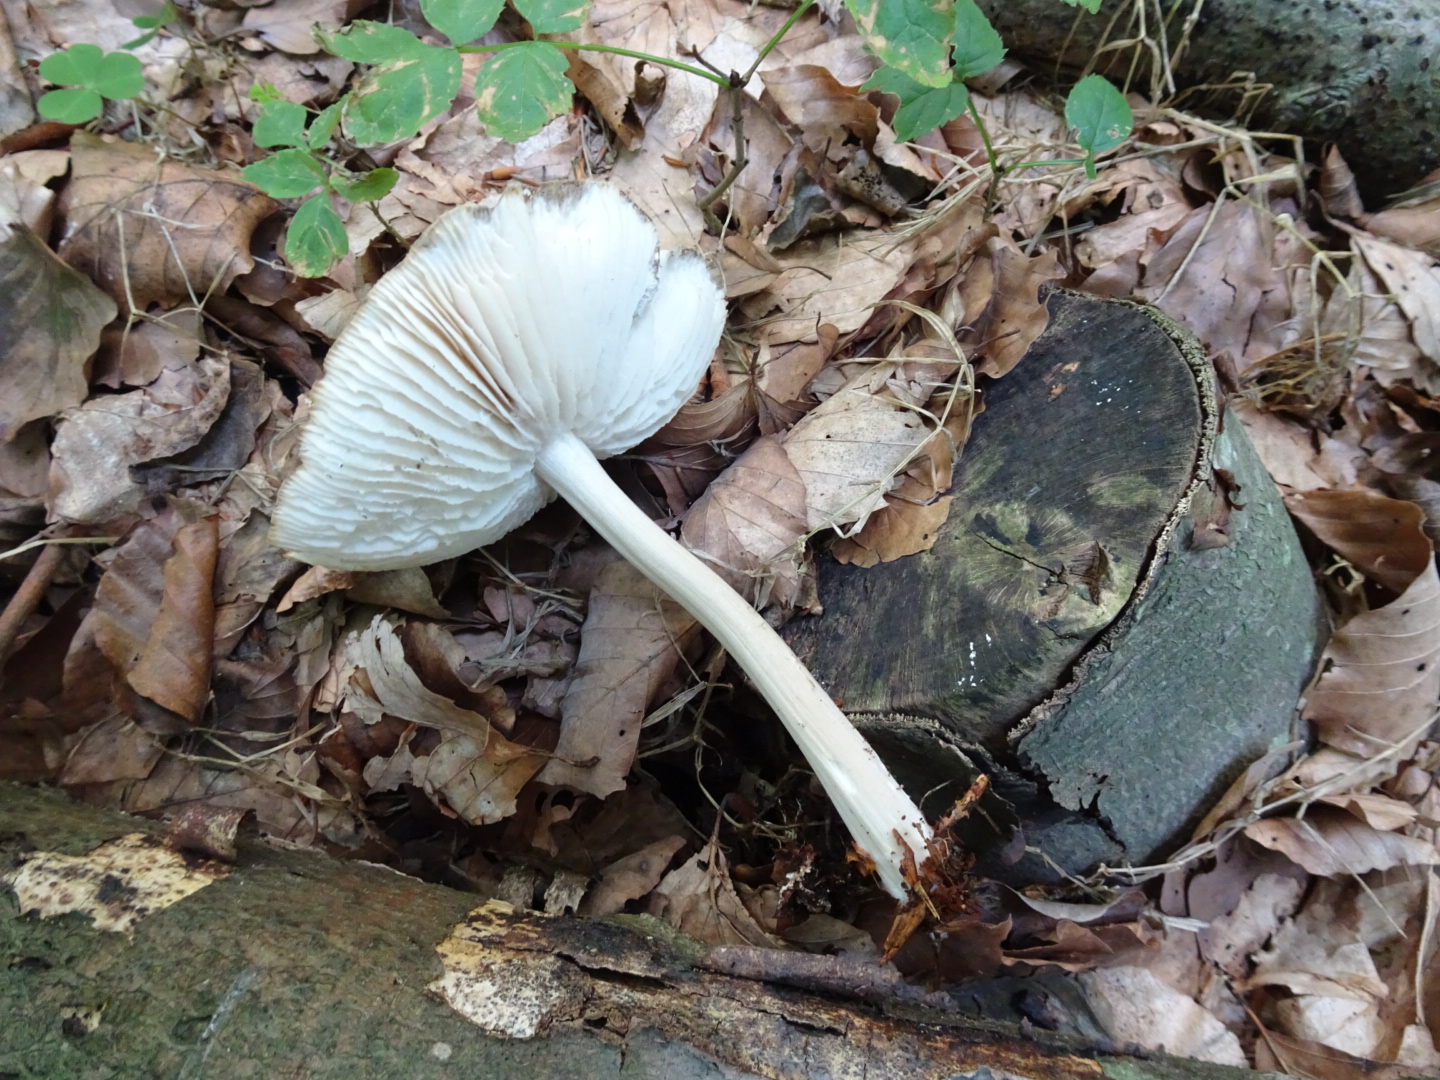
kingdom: Fungi
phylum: Basidiomycota
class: Agaricomycetes
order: Agaricales
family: Tricholomataceae
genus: Megacollybia
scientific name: Megacollybia platyphylla
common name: bredbladet væbnerhat
